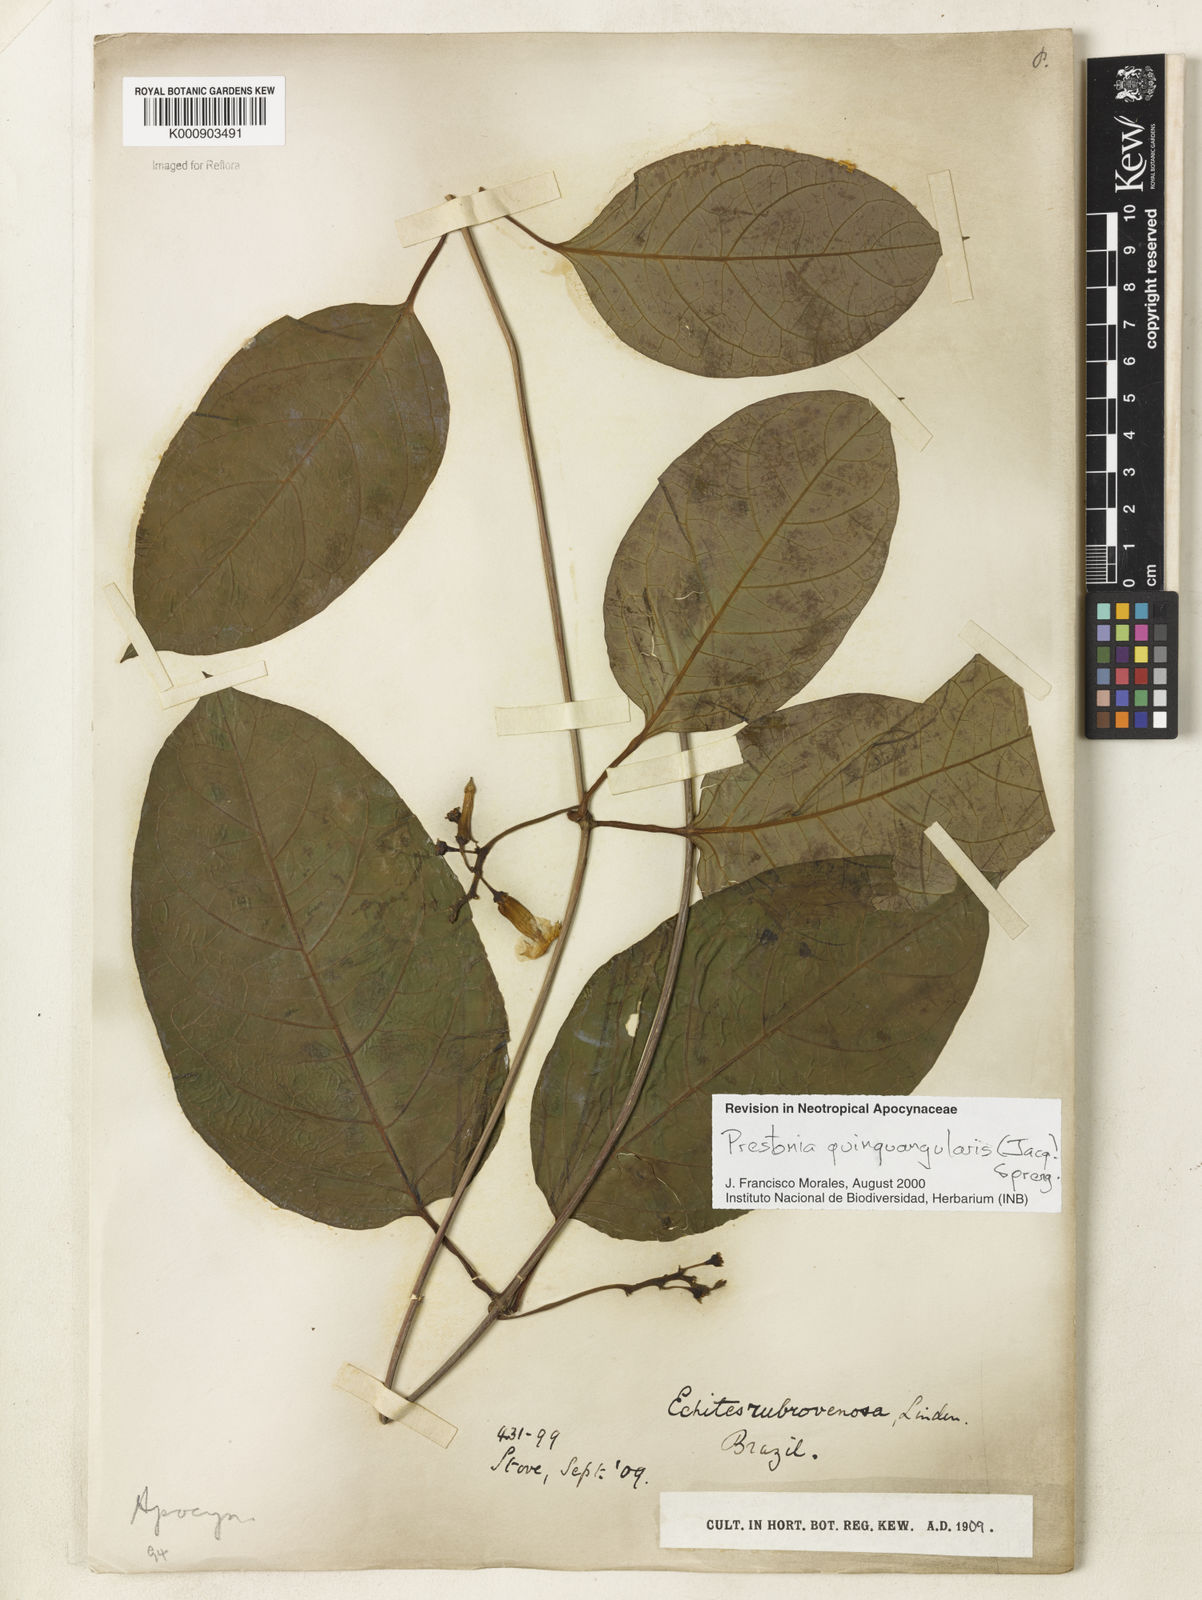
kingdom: Plantae
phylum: Tracheophyta
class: Magnoliopsida
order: Gentianales
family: Apocynaceae
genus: Prestonia
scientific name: Prestonia quinquangularis
